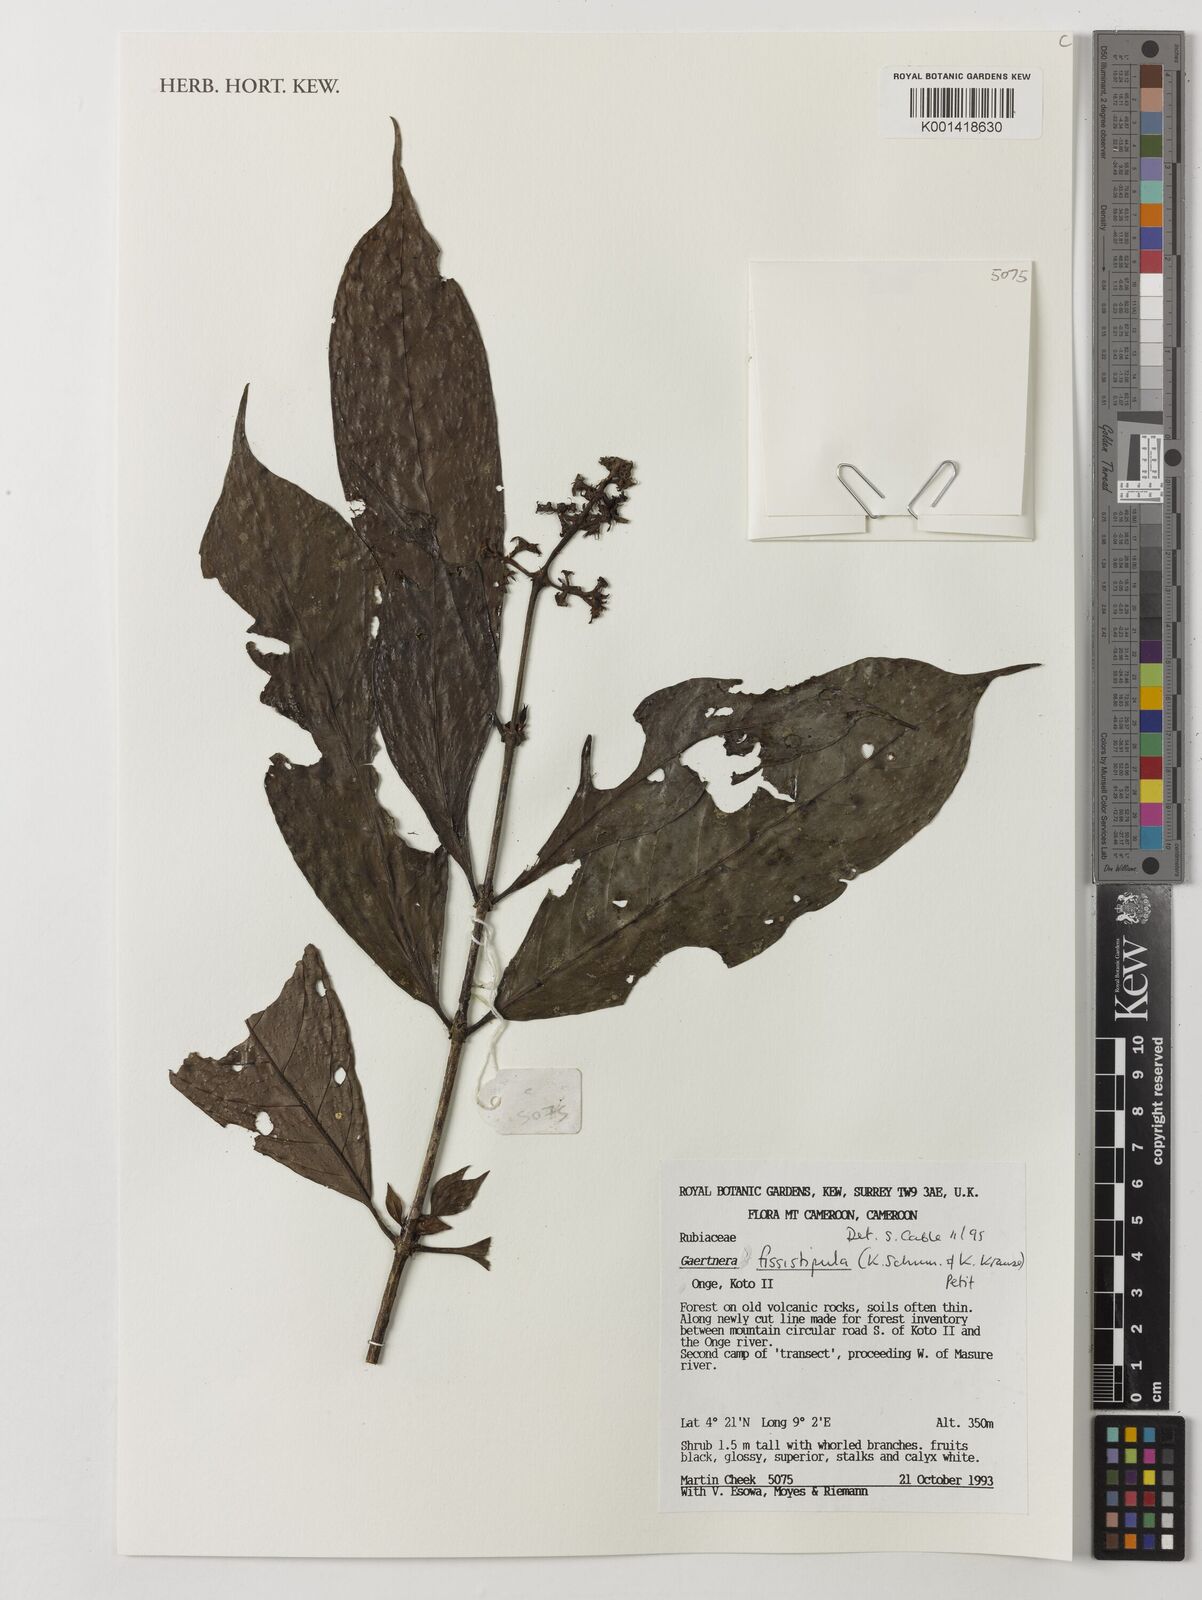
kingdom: Plantae
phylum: Tracheophyta
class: Magnoliopsida
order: Gentianales
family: Rubiaceae
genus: Gaertnera
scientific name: Gaertnera bieleri
